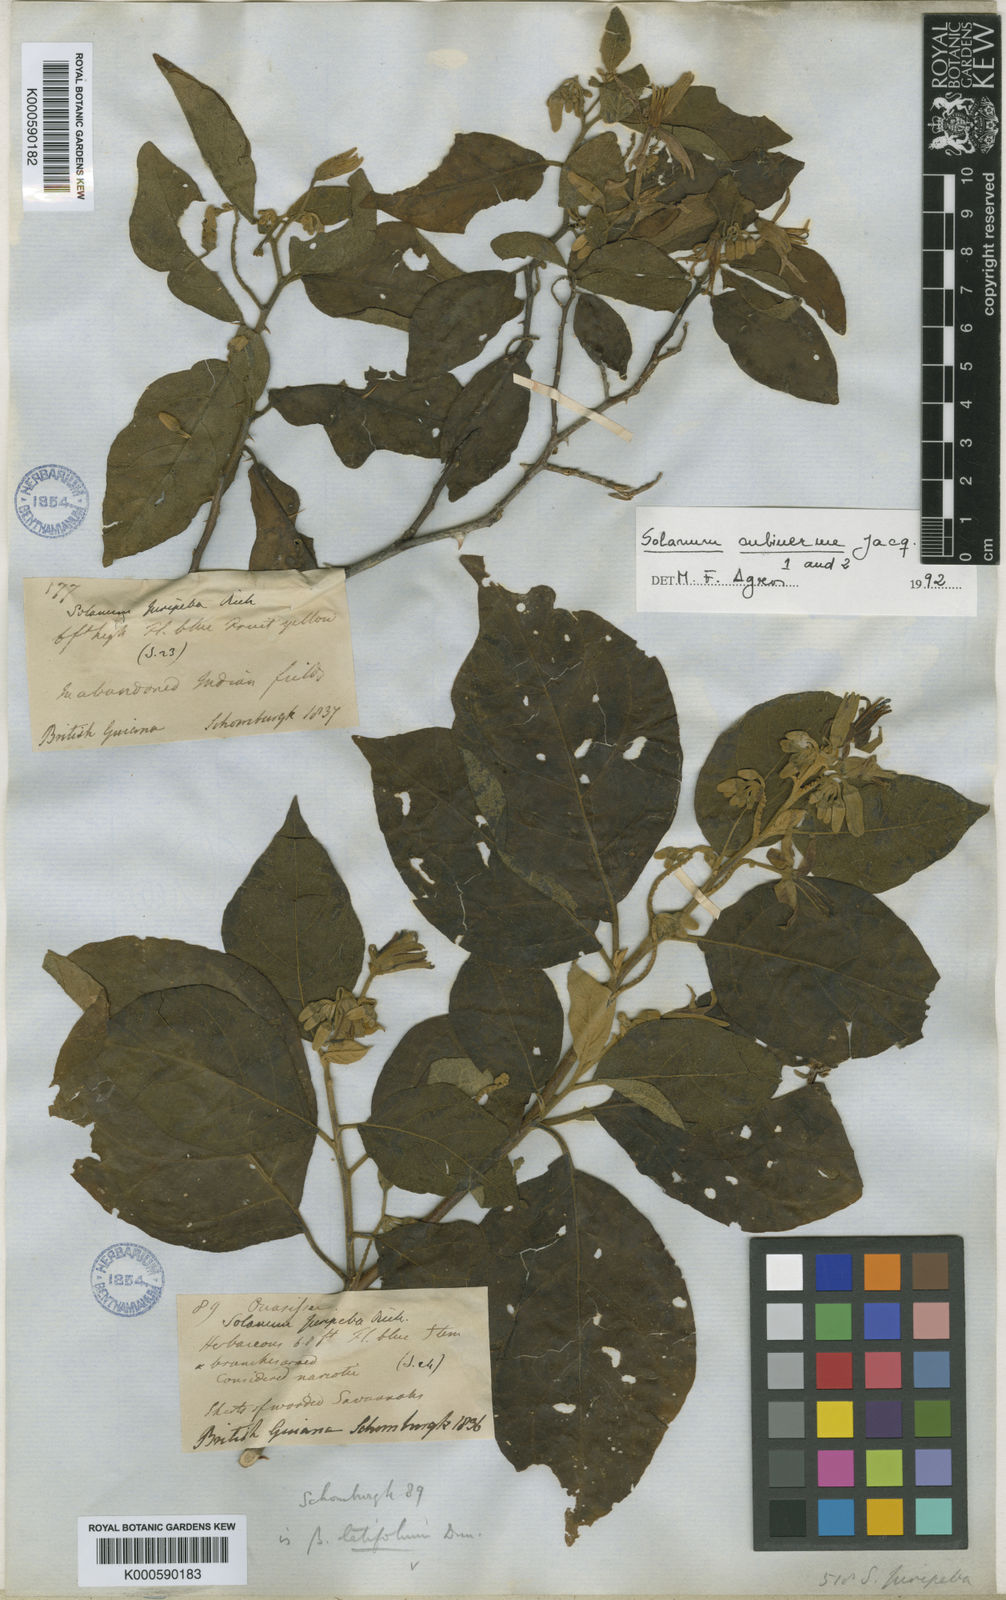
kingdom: Plantae
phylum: Tracheophyta
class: Magnoliopsida
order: Solanales
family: Solanaceae
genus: Solanum
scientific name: Solanum subinerme
